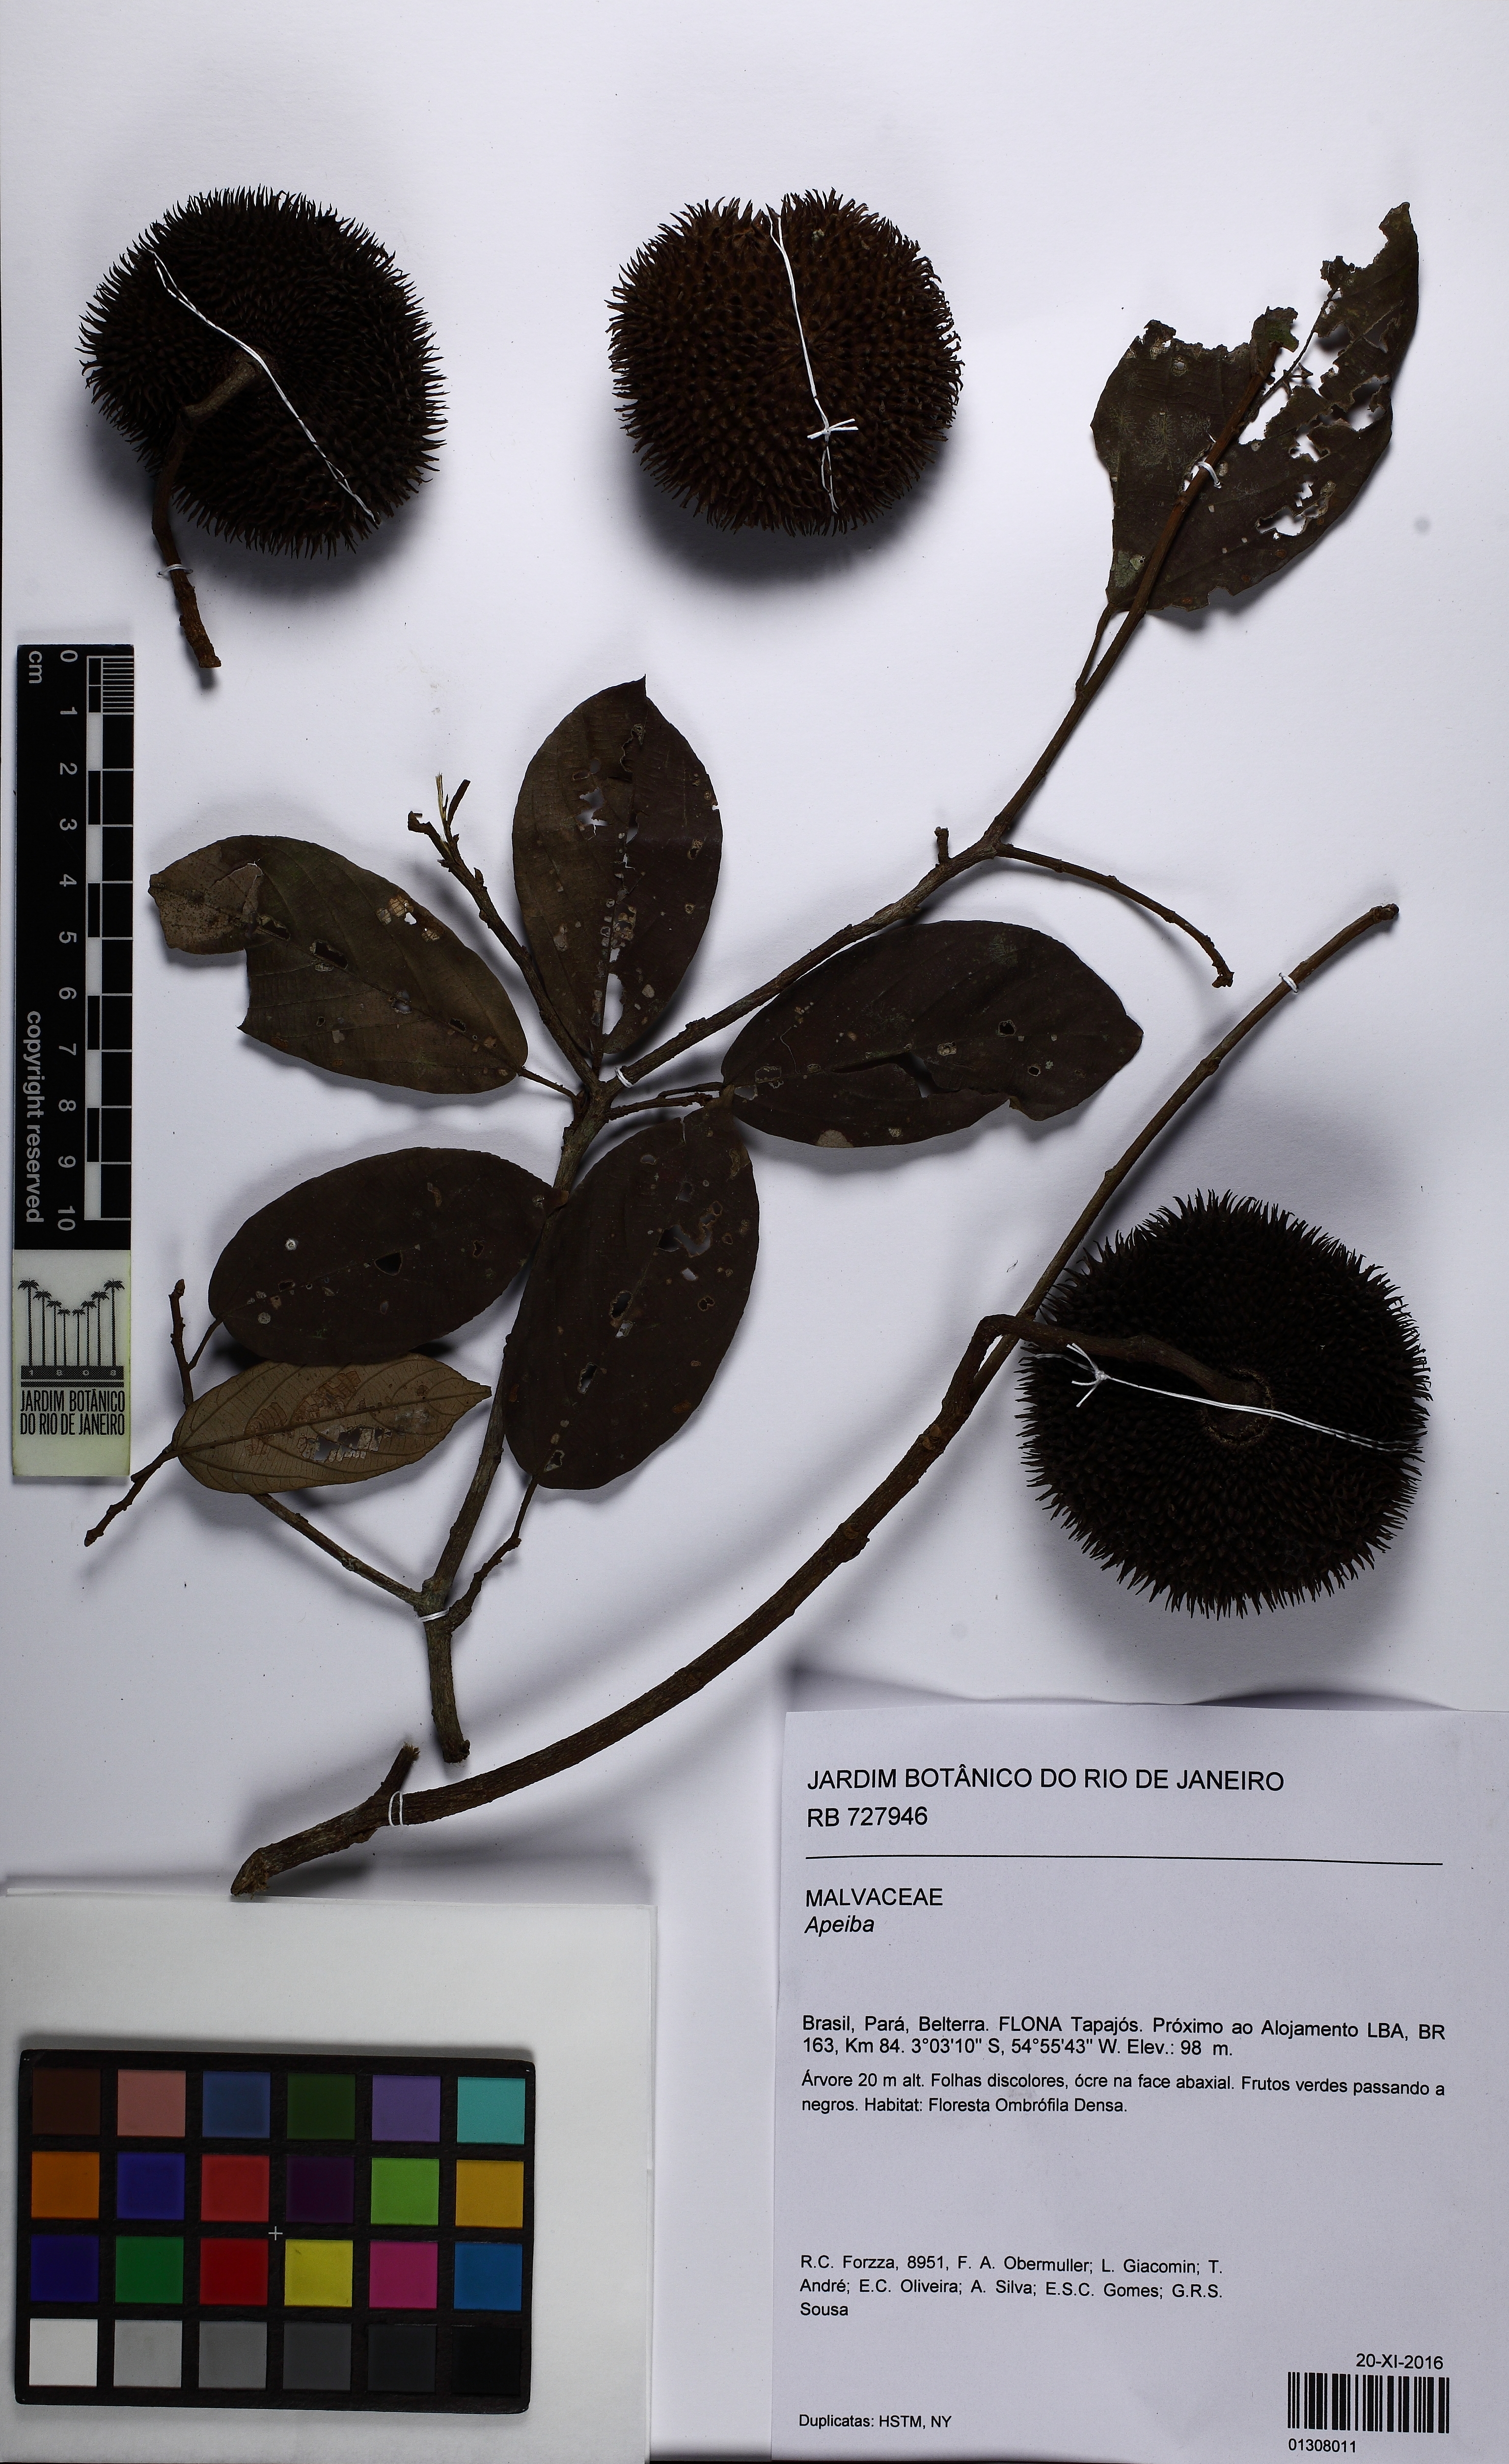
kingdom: Plantae
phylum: Tracheophyta
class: Magnoliopsida
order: Malvales
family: Malvaceae
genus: Apeiba
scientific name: Apeiba petoumo
